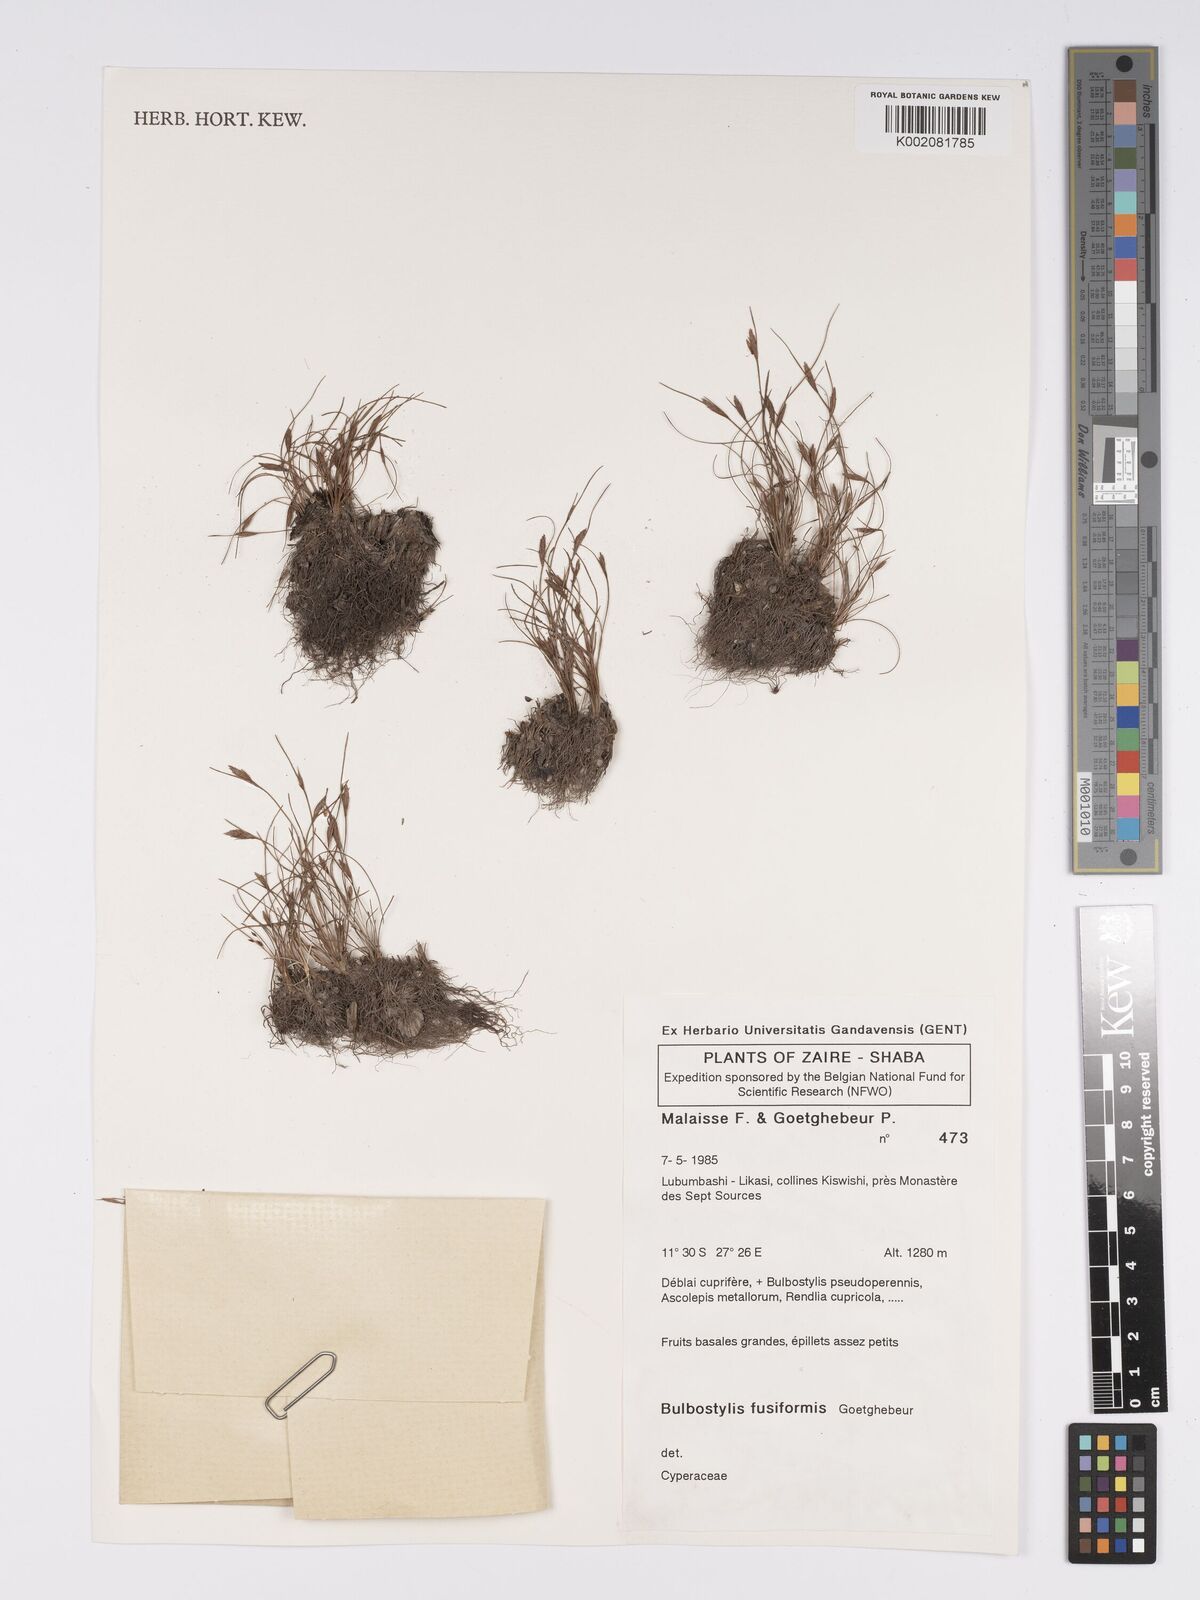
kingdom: Plantae
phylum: Tracheophyta
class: Liliopsida
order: Poales
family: Cyperaceae
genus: Bulbostylis
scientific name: Bulbostylis fusiformis
